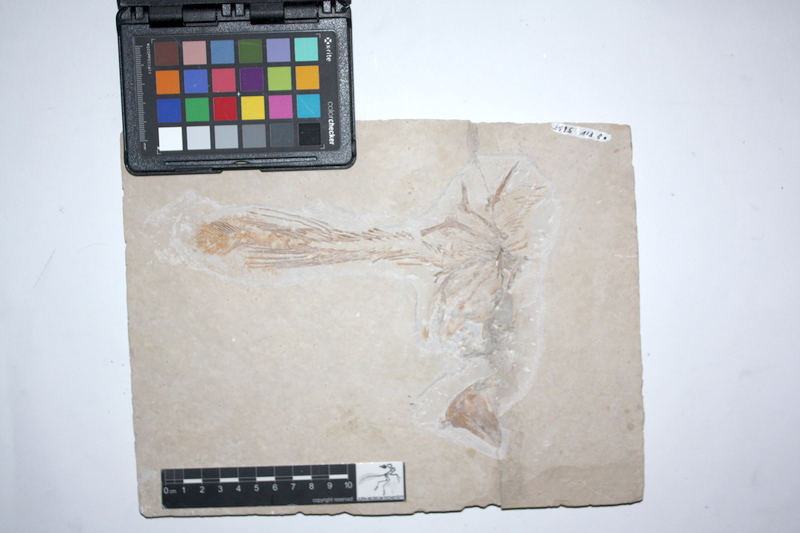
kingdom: Animalia
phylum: Chordata
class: Coelacanthi
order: Coelacanthiformes
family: Latimeroidea
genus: Undina
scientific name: Undina penicillata
